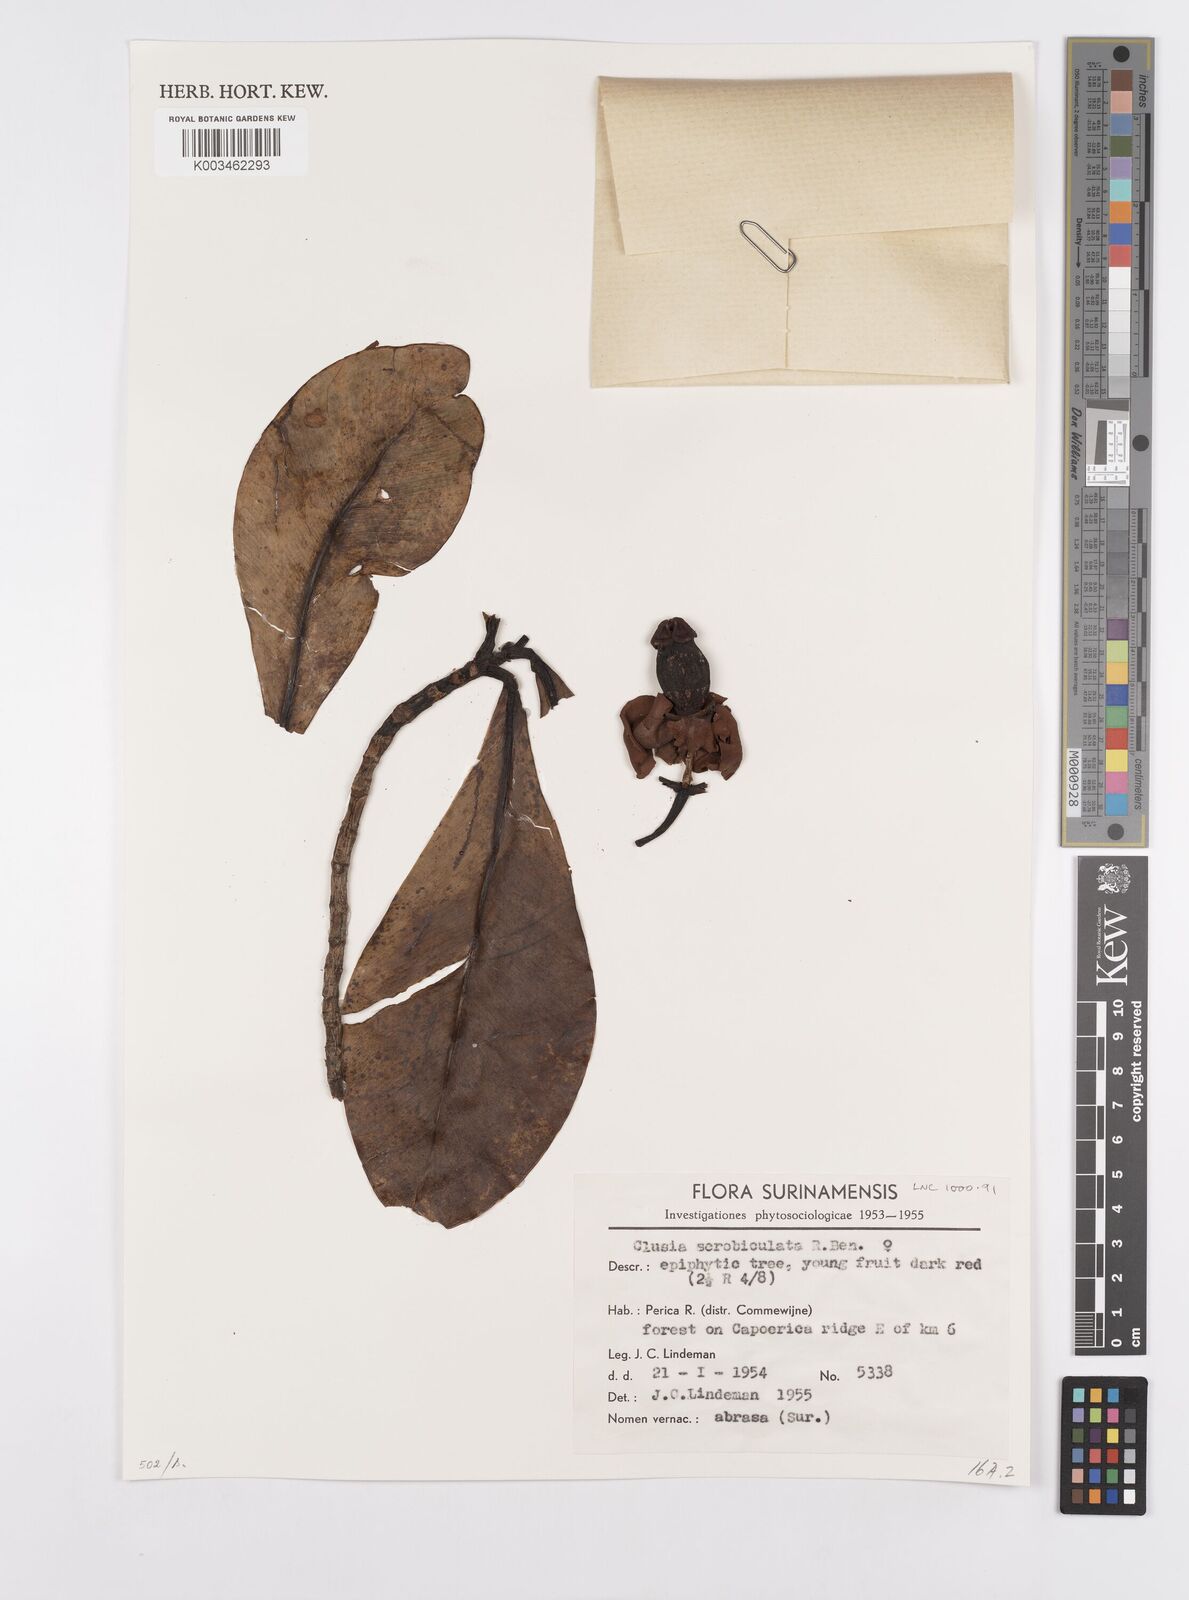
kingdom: Plantae
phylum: Tracheophyta
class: Magnoliopsida
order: Malpighiales
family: Clusiaceae
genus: Clusia
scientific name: Clusia scrobiculata
